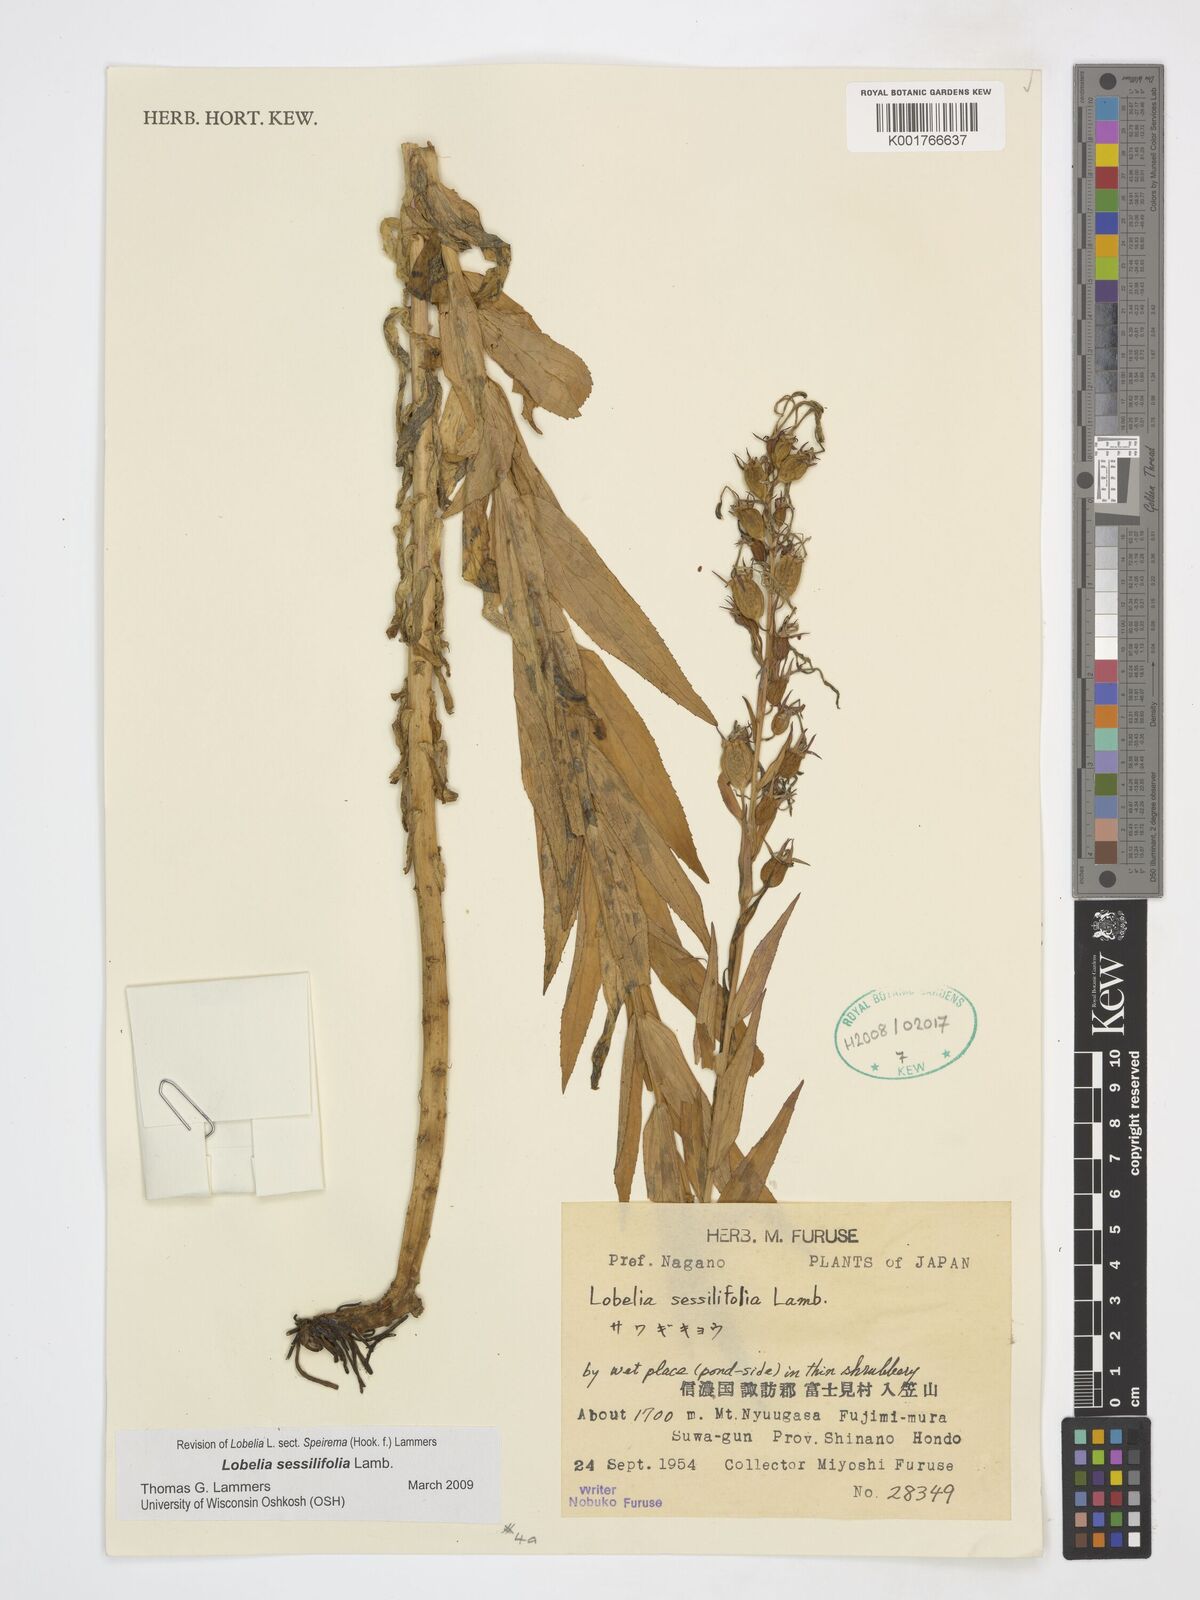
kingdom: Plantae
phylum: Tracheophyta
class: Magnoliopsida
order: Asterales
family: Campanulaceae
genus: Lobelia
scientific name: Lobelia sessilifolia
